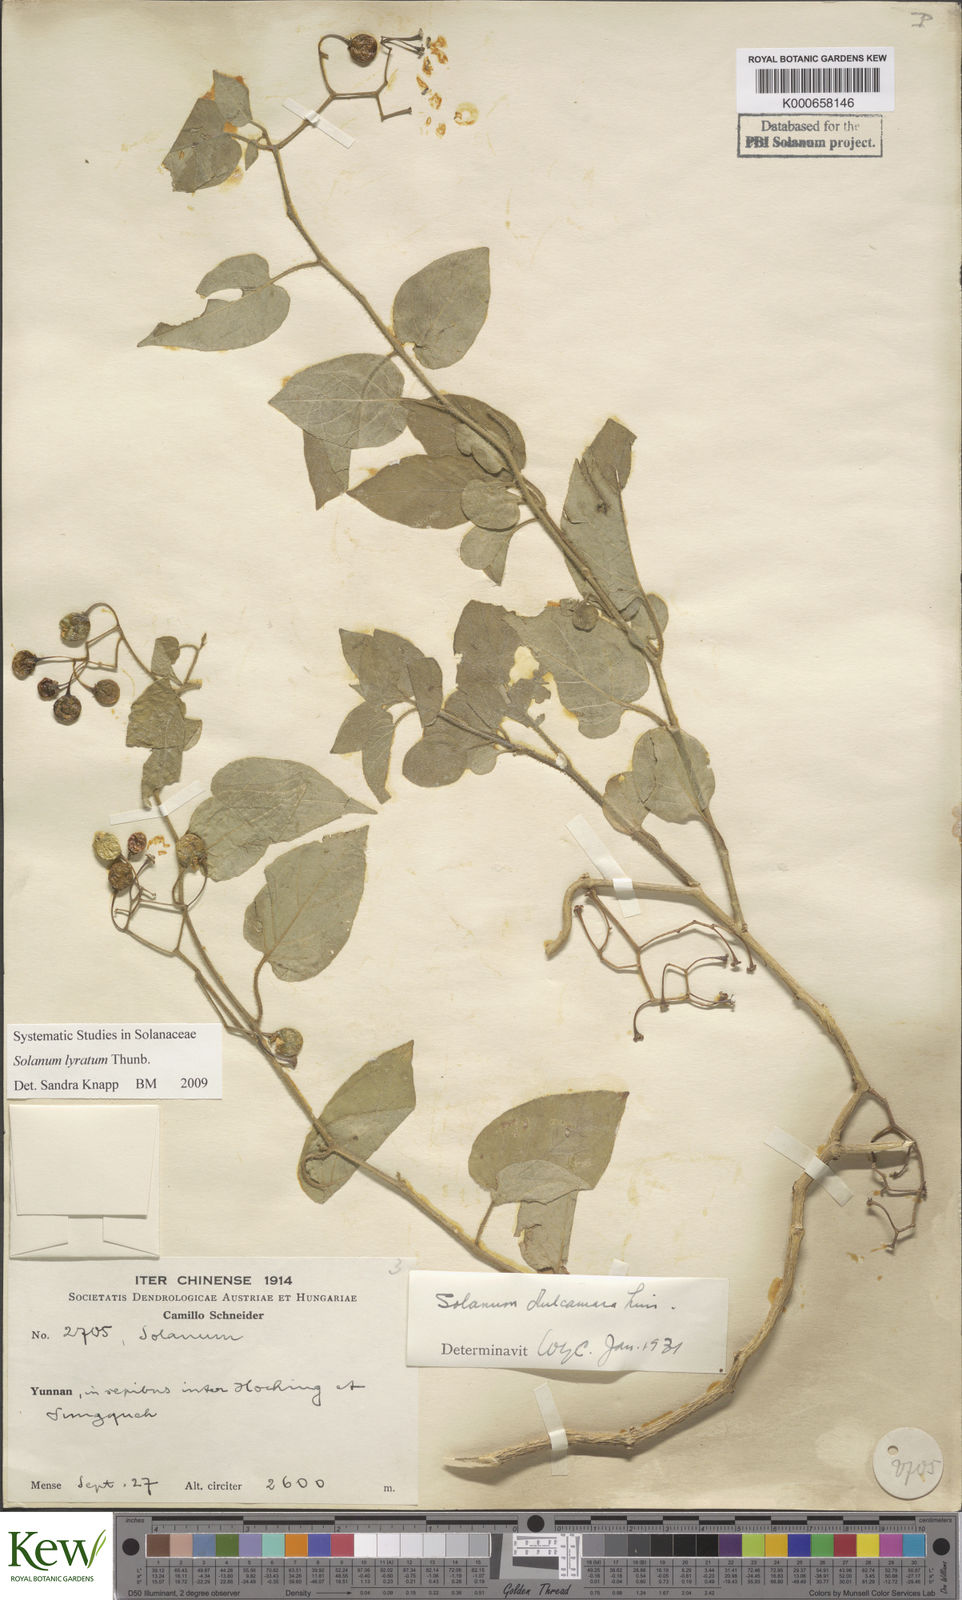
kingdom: Plantae
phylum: Tracheophyta
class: Magnoliopsida
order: Solanales
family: Solanaceae
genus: Solanum
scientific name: Solanum lyratum
